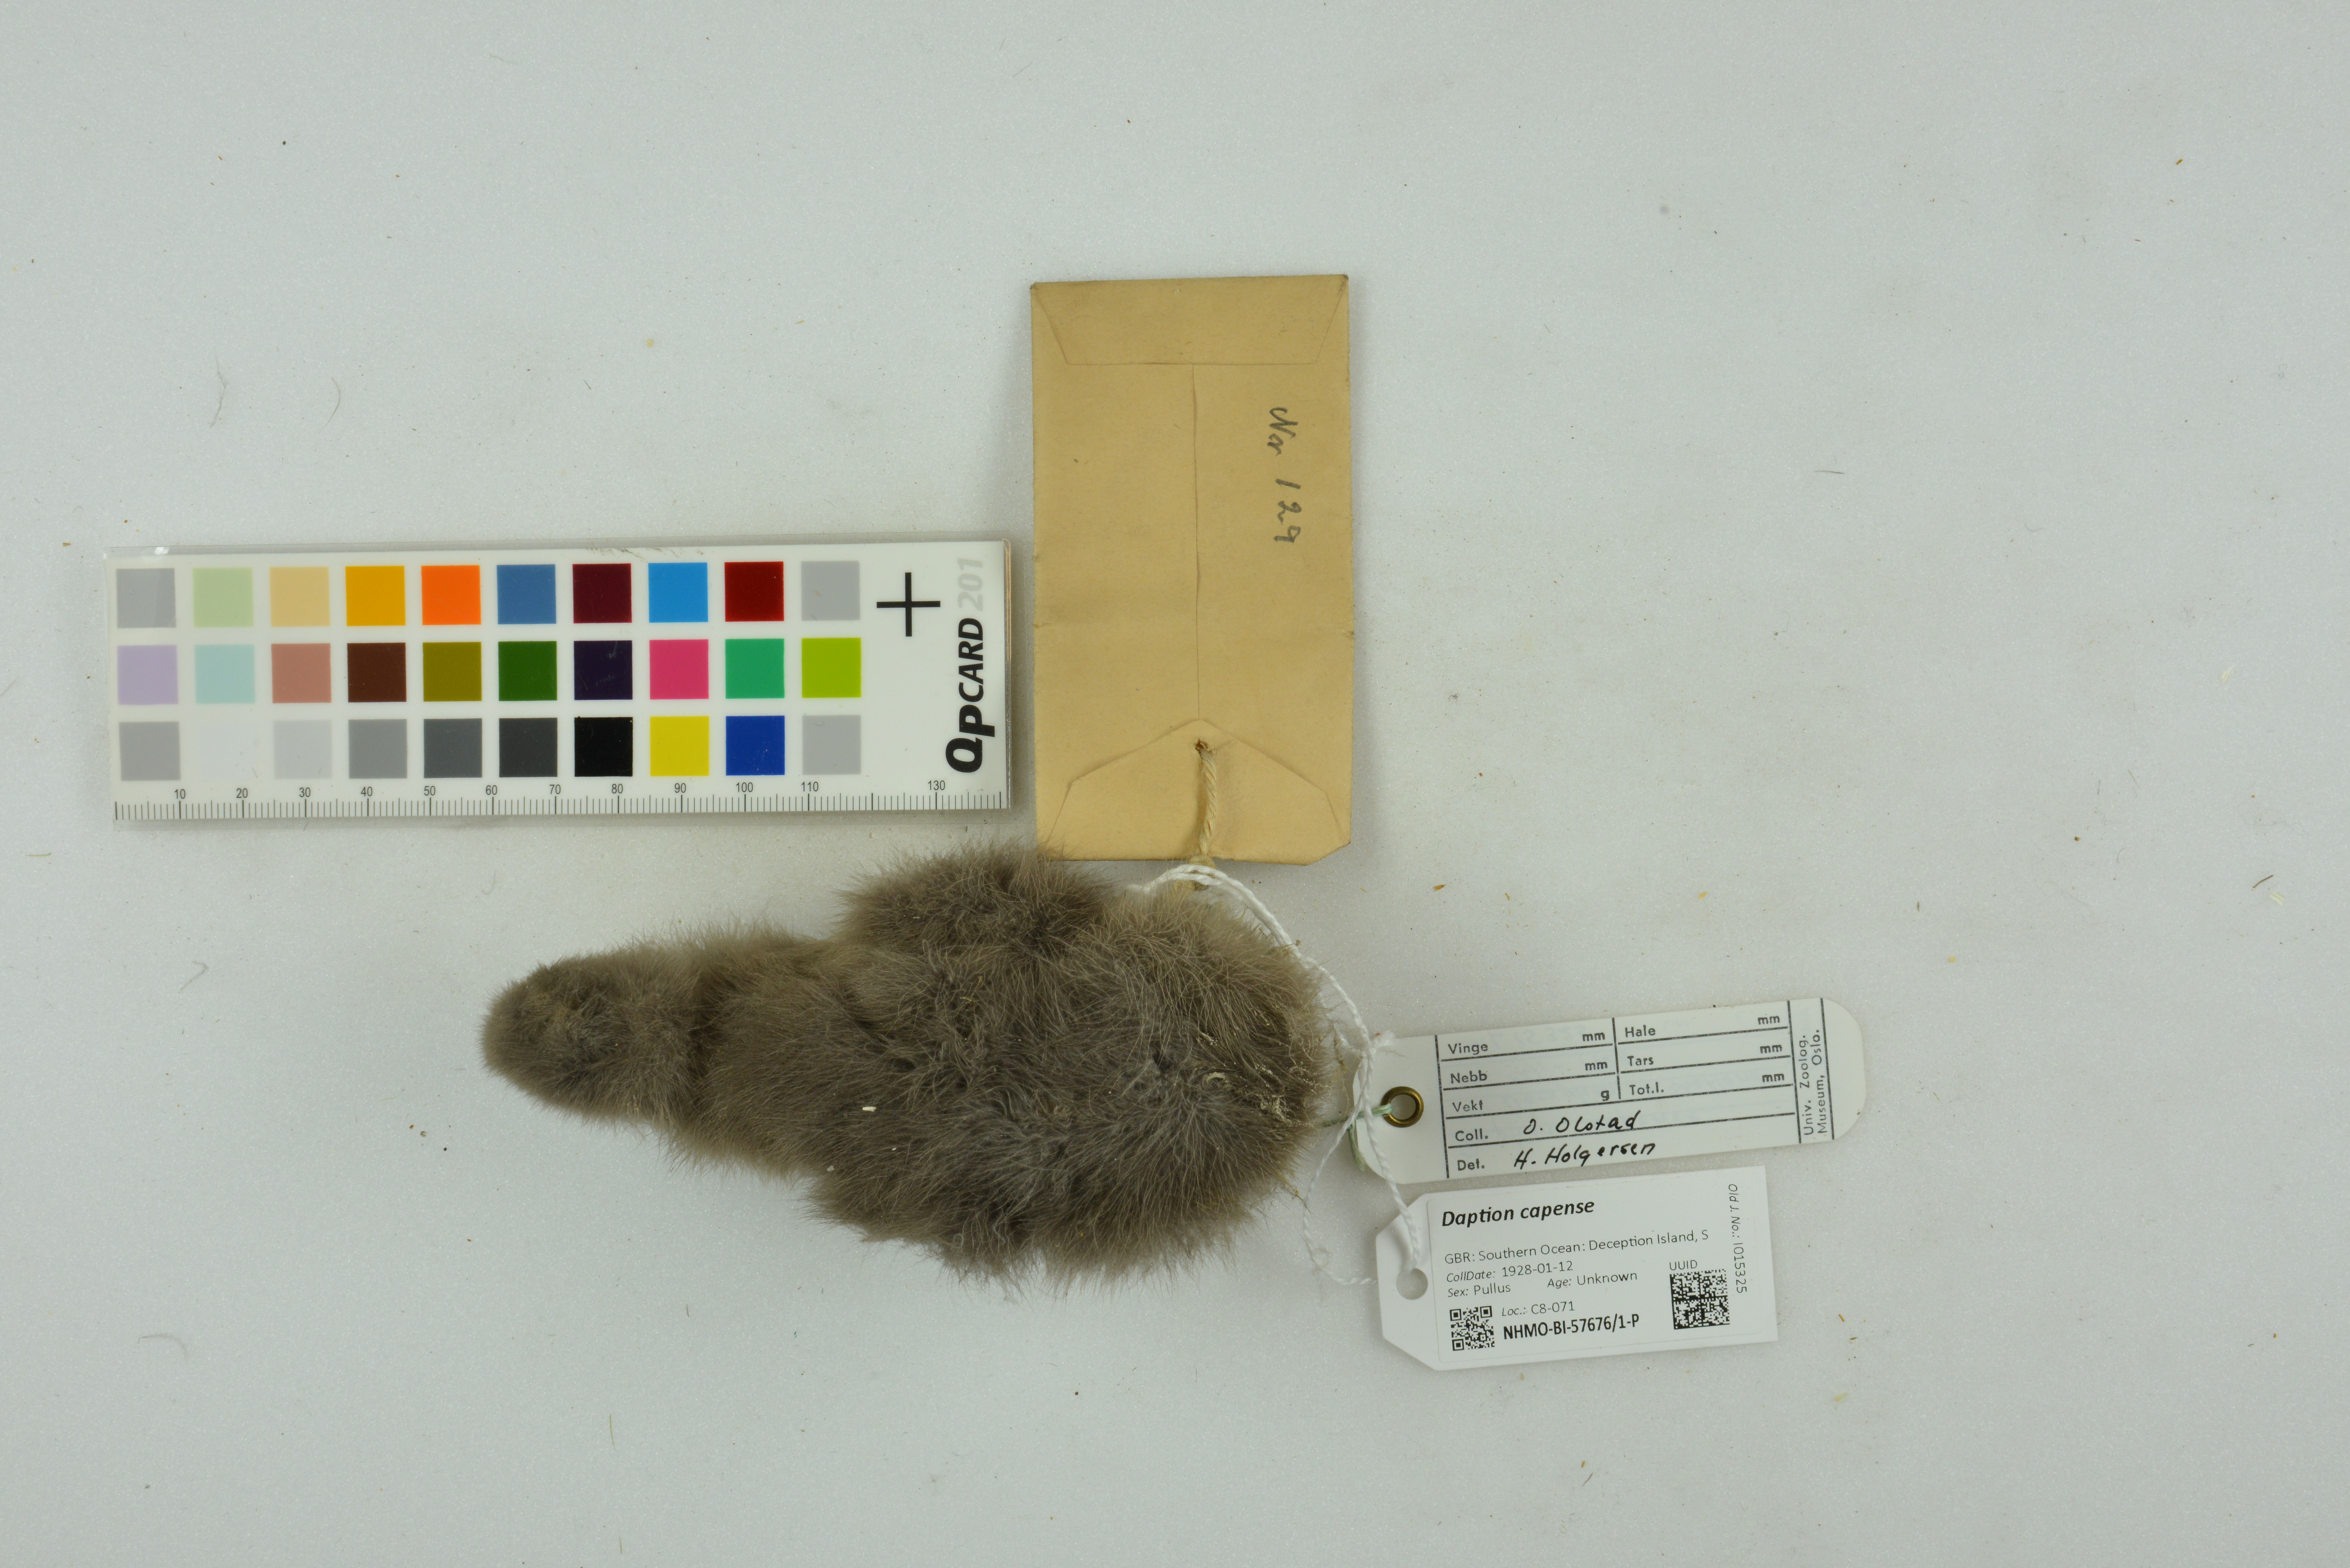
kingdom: Animalia
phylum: Chordata
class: Aves
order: Procellariiformes
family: Procellariidae
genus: Daption
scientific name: Daption capense
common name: Cape petrel
